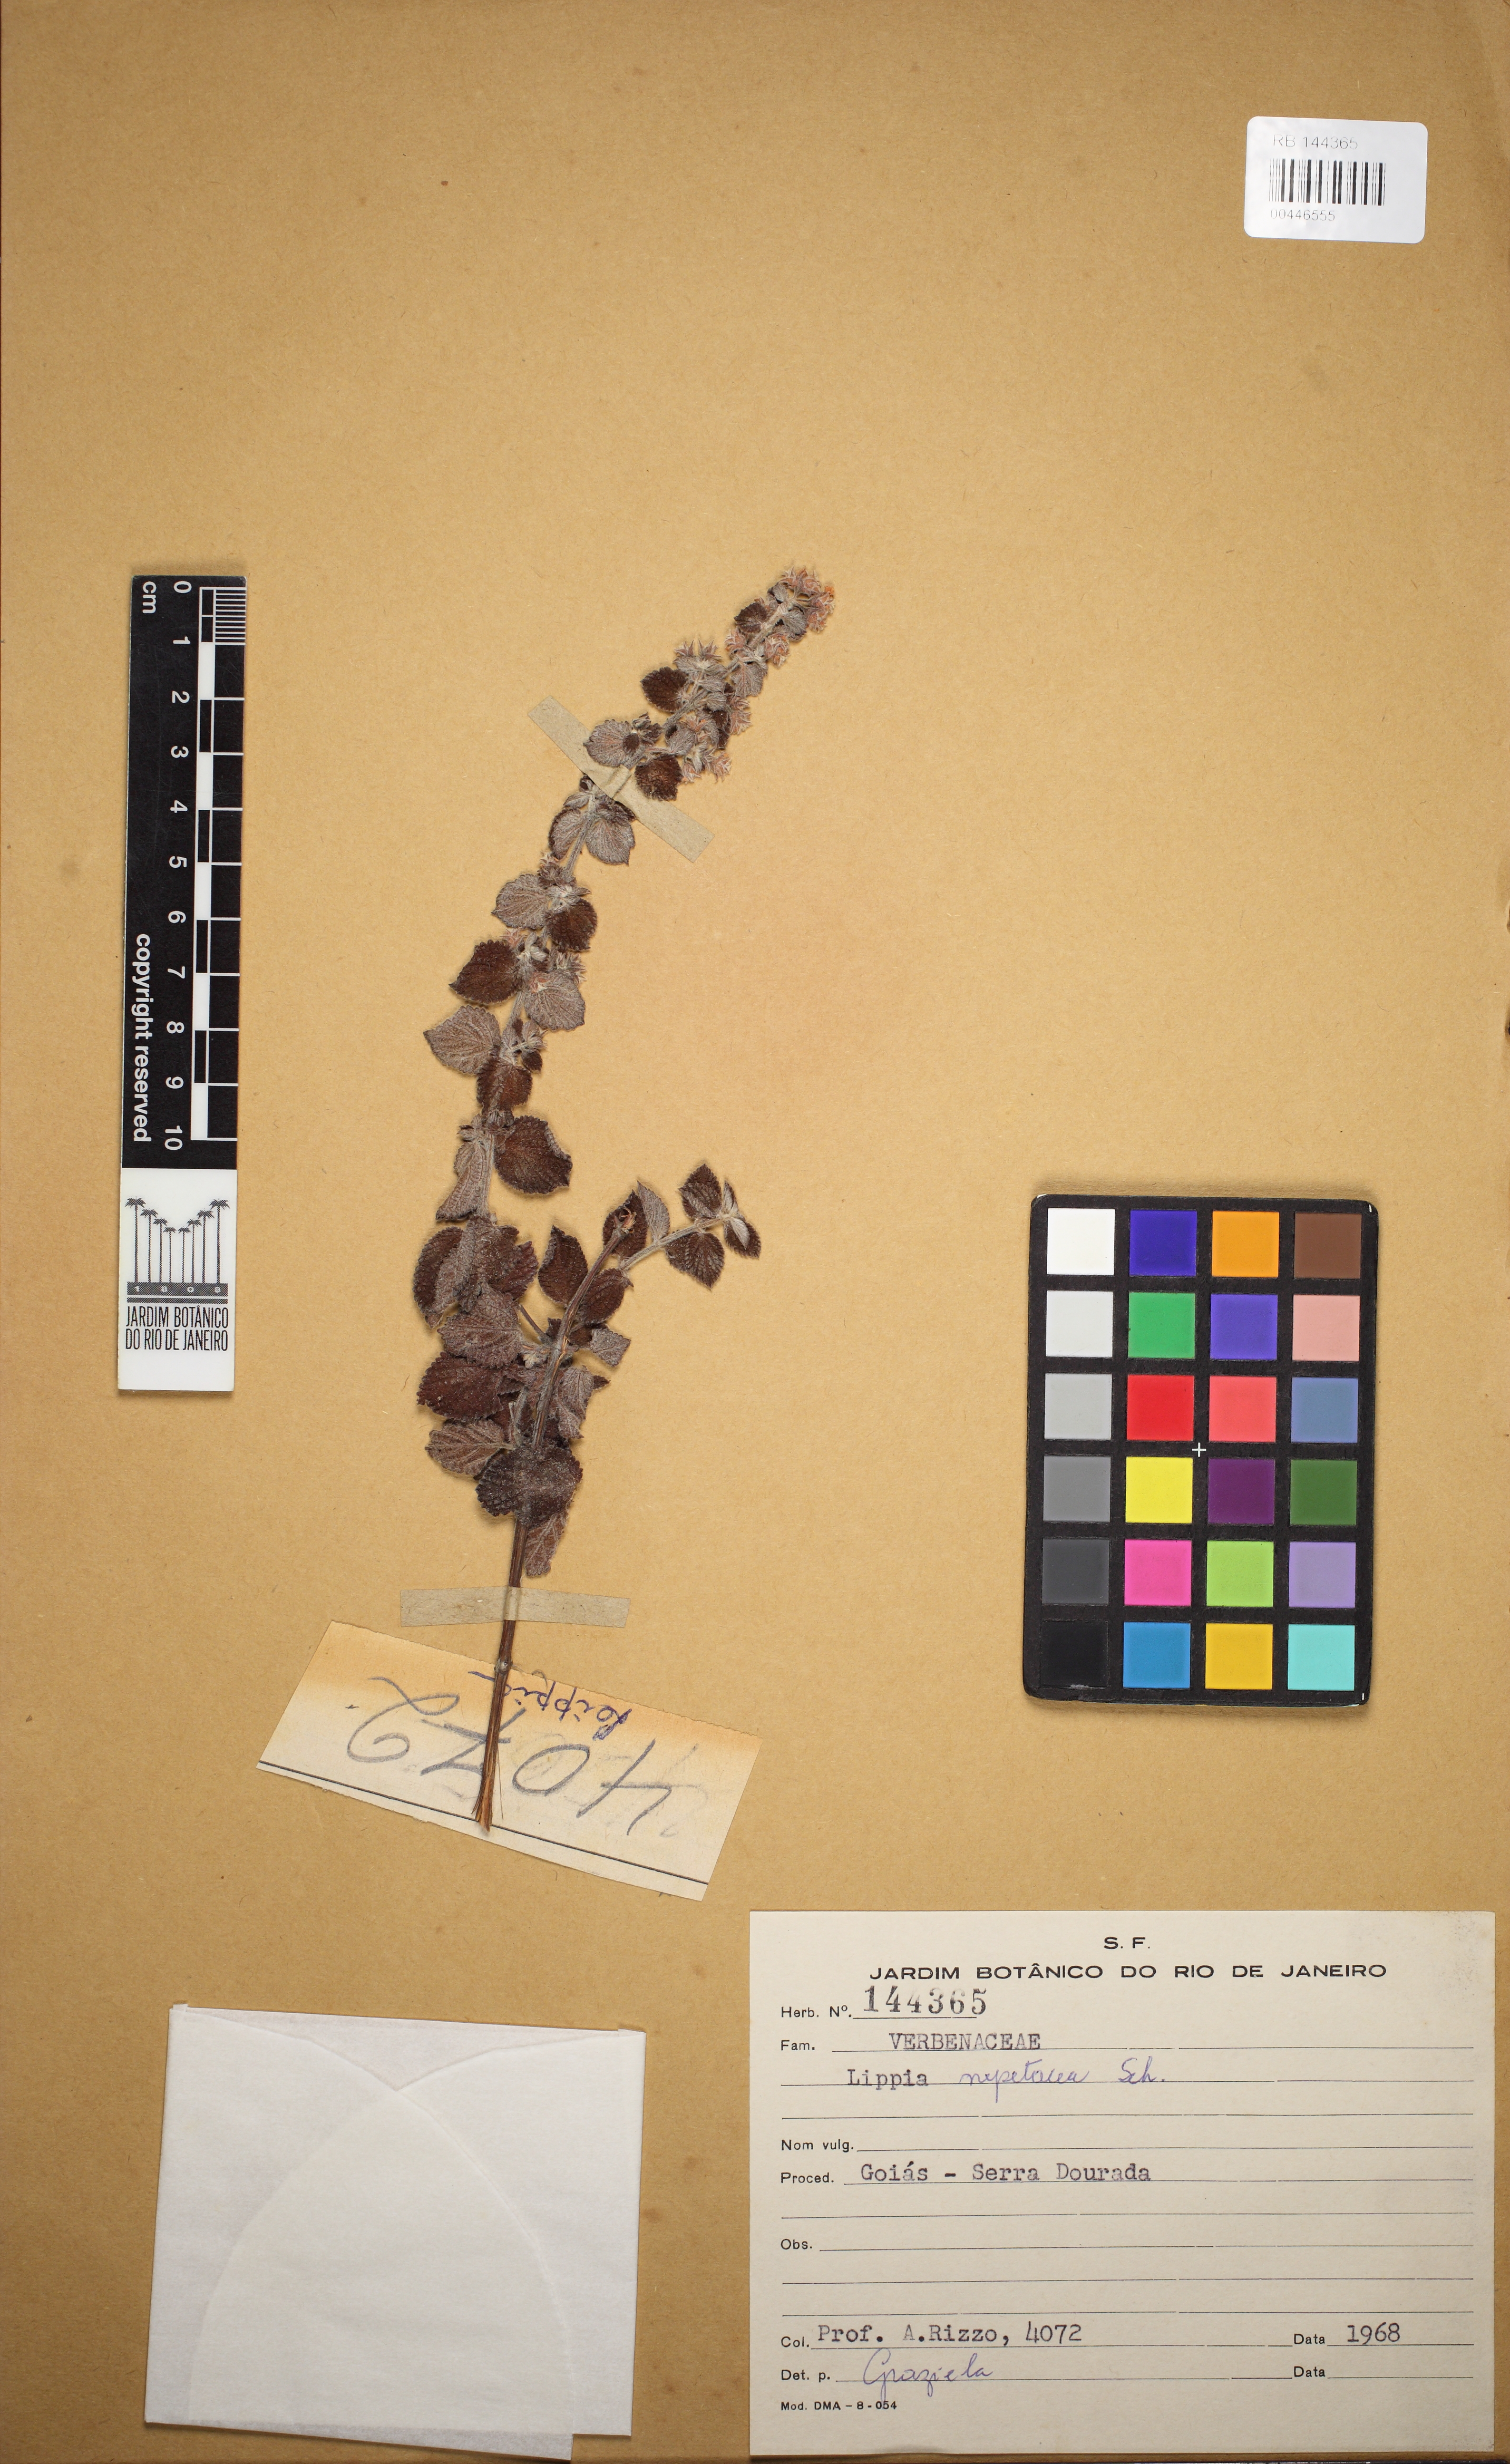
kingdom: Plantae
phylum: Tracheophyta
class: Magnoliopsida
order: Lamiales
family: Verbenaceae
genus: Lippia
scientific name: Lippia martiana
